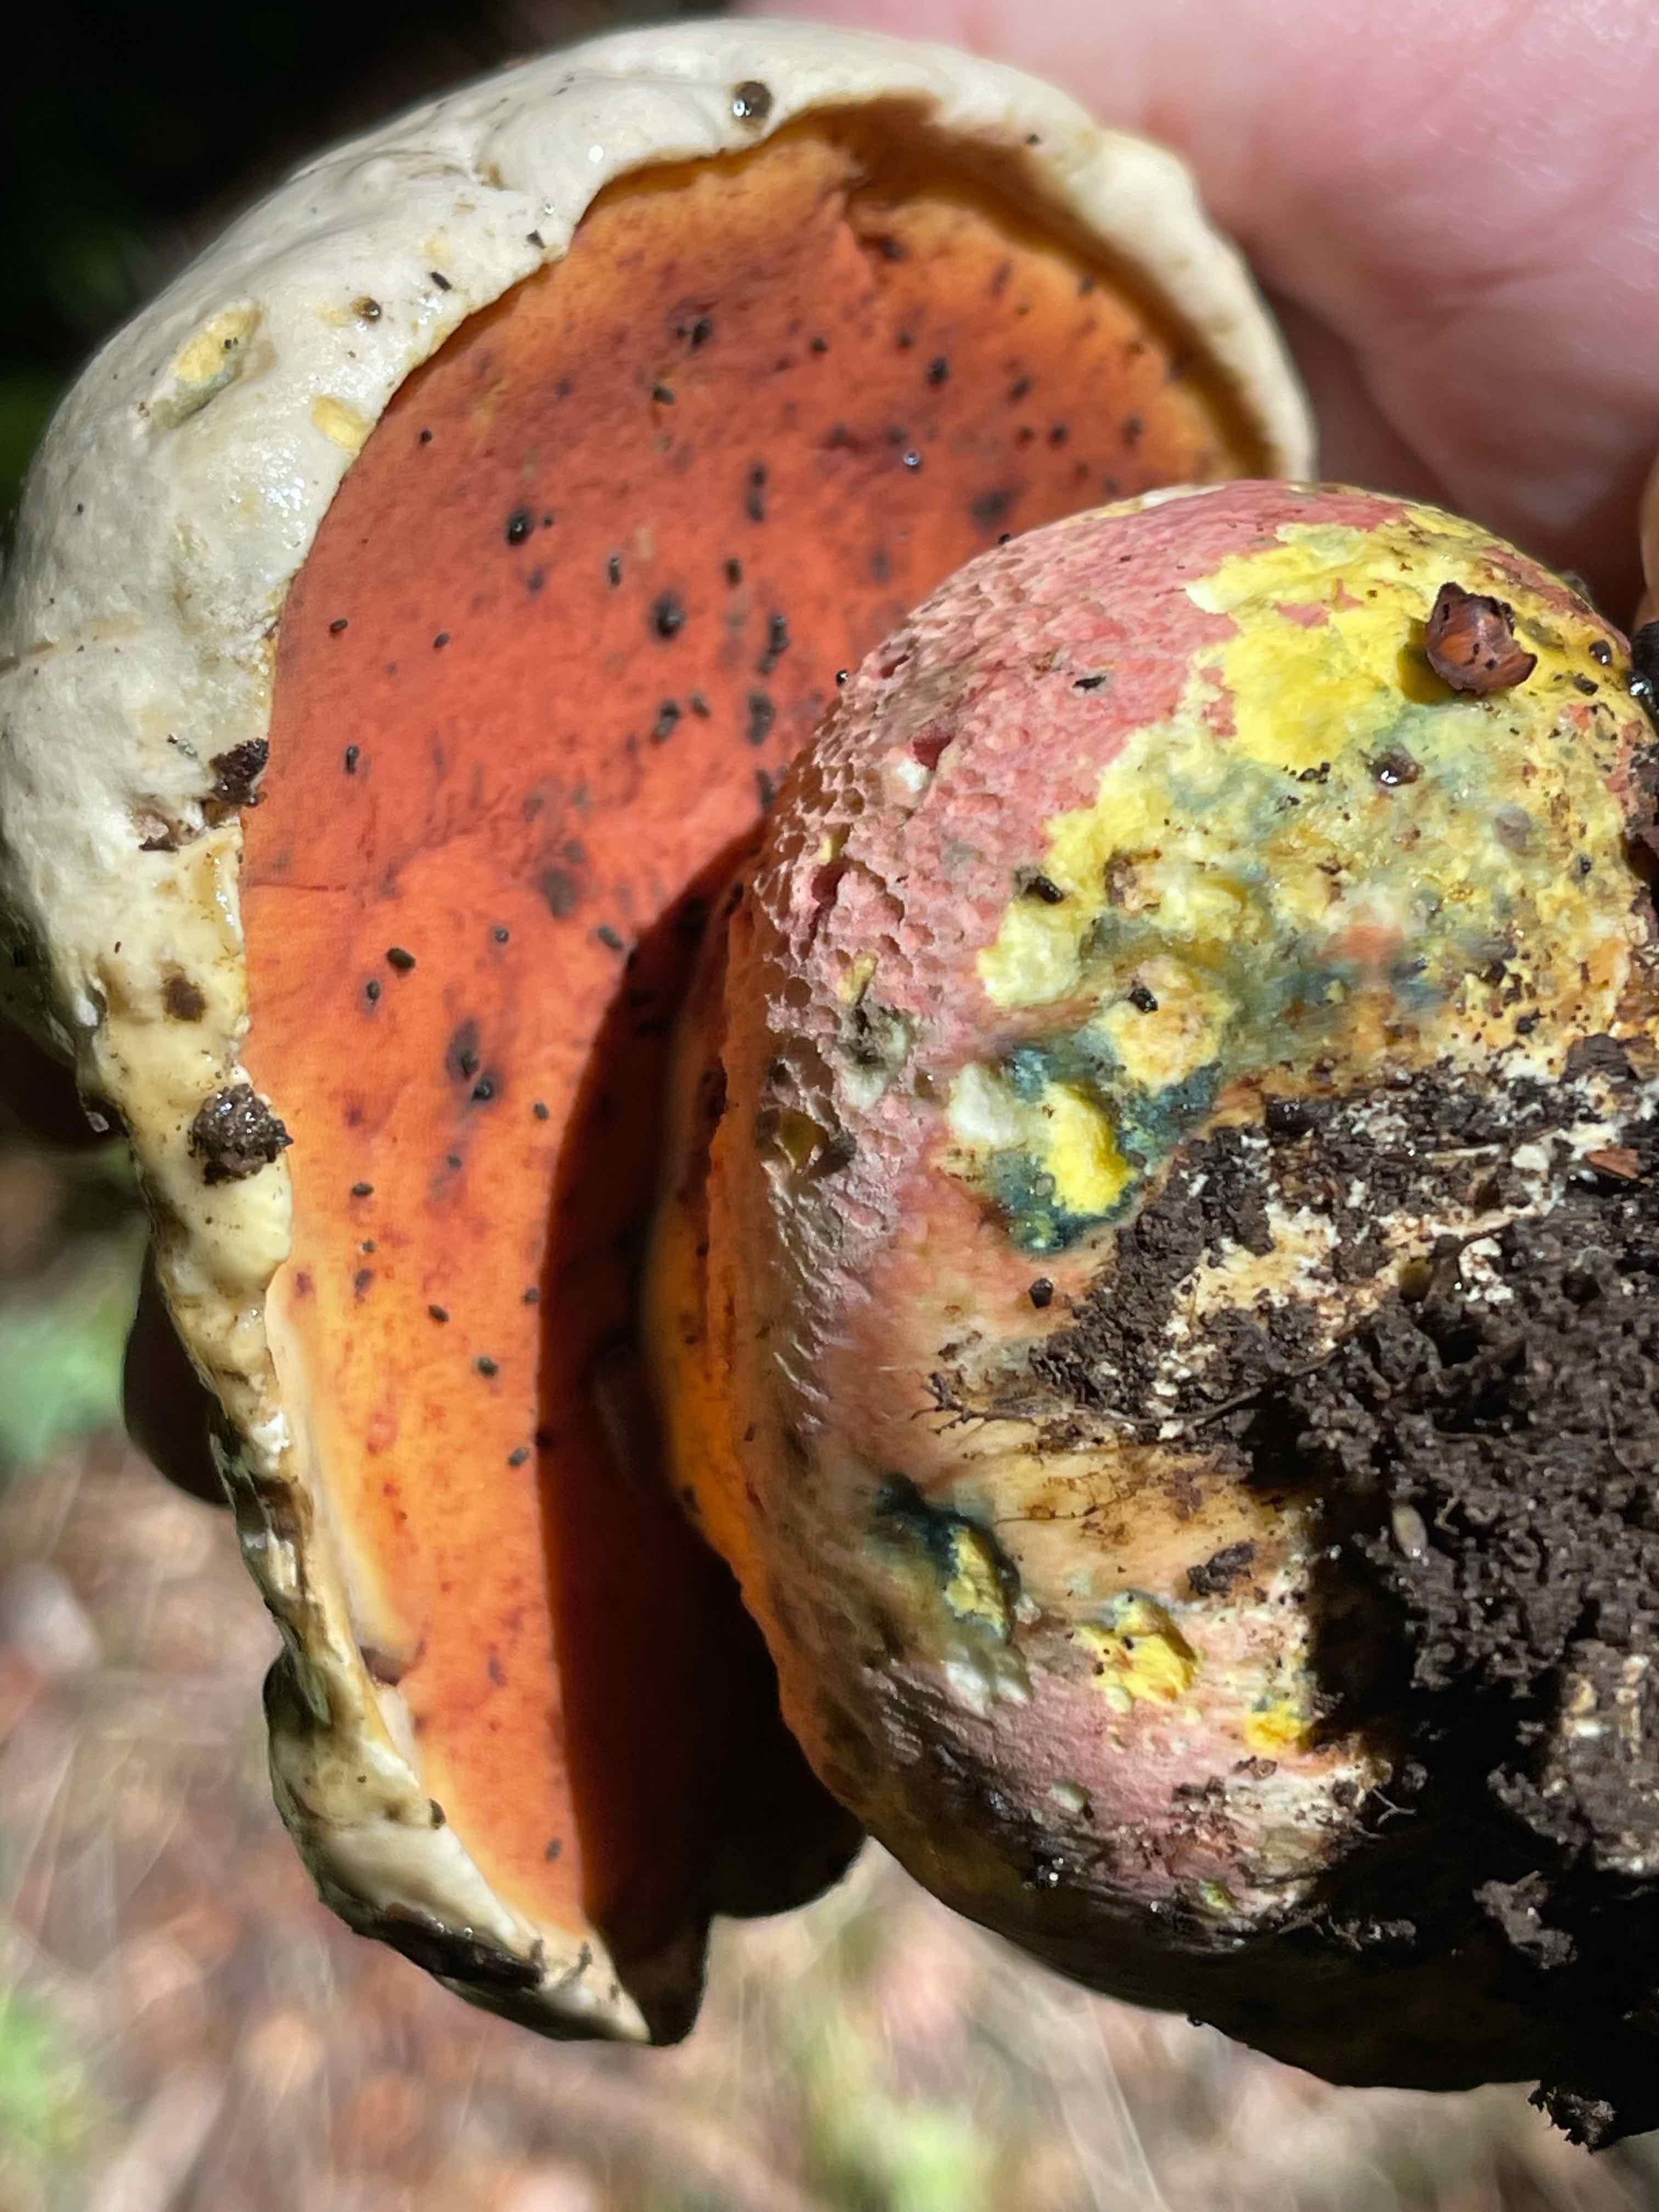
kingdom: Fungi
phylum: Basidiomycota
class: Agaricomycetes
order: Boletales
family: Boletaceae
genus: Rubroboletus
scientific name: Rubroboletus satanas
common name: Satans rørhat
